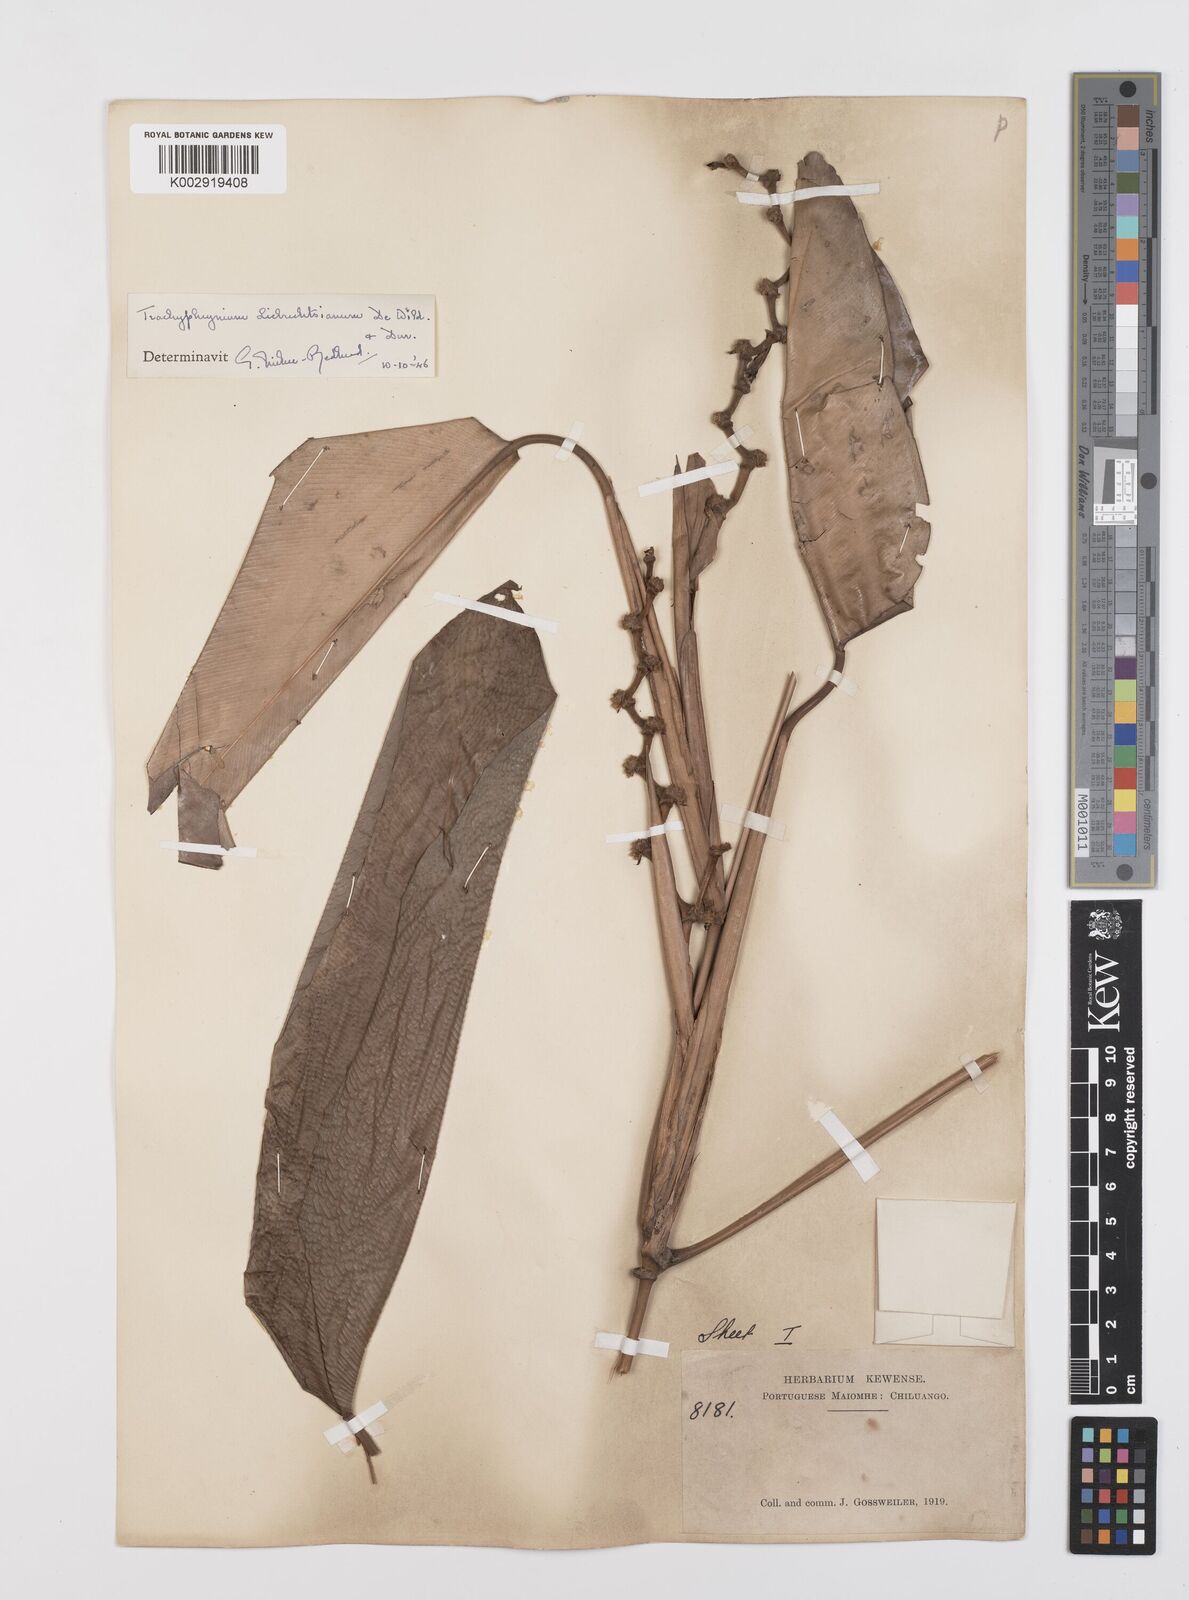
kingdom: Plantae
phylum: Tracheophyta
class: Liliopsida
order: Zingiberales
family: Marantaceae
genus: Haumania
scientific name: Haumania liebrechtsiana
